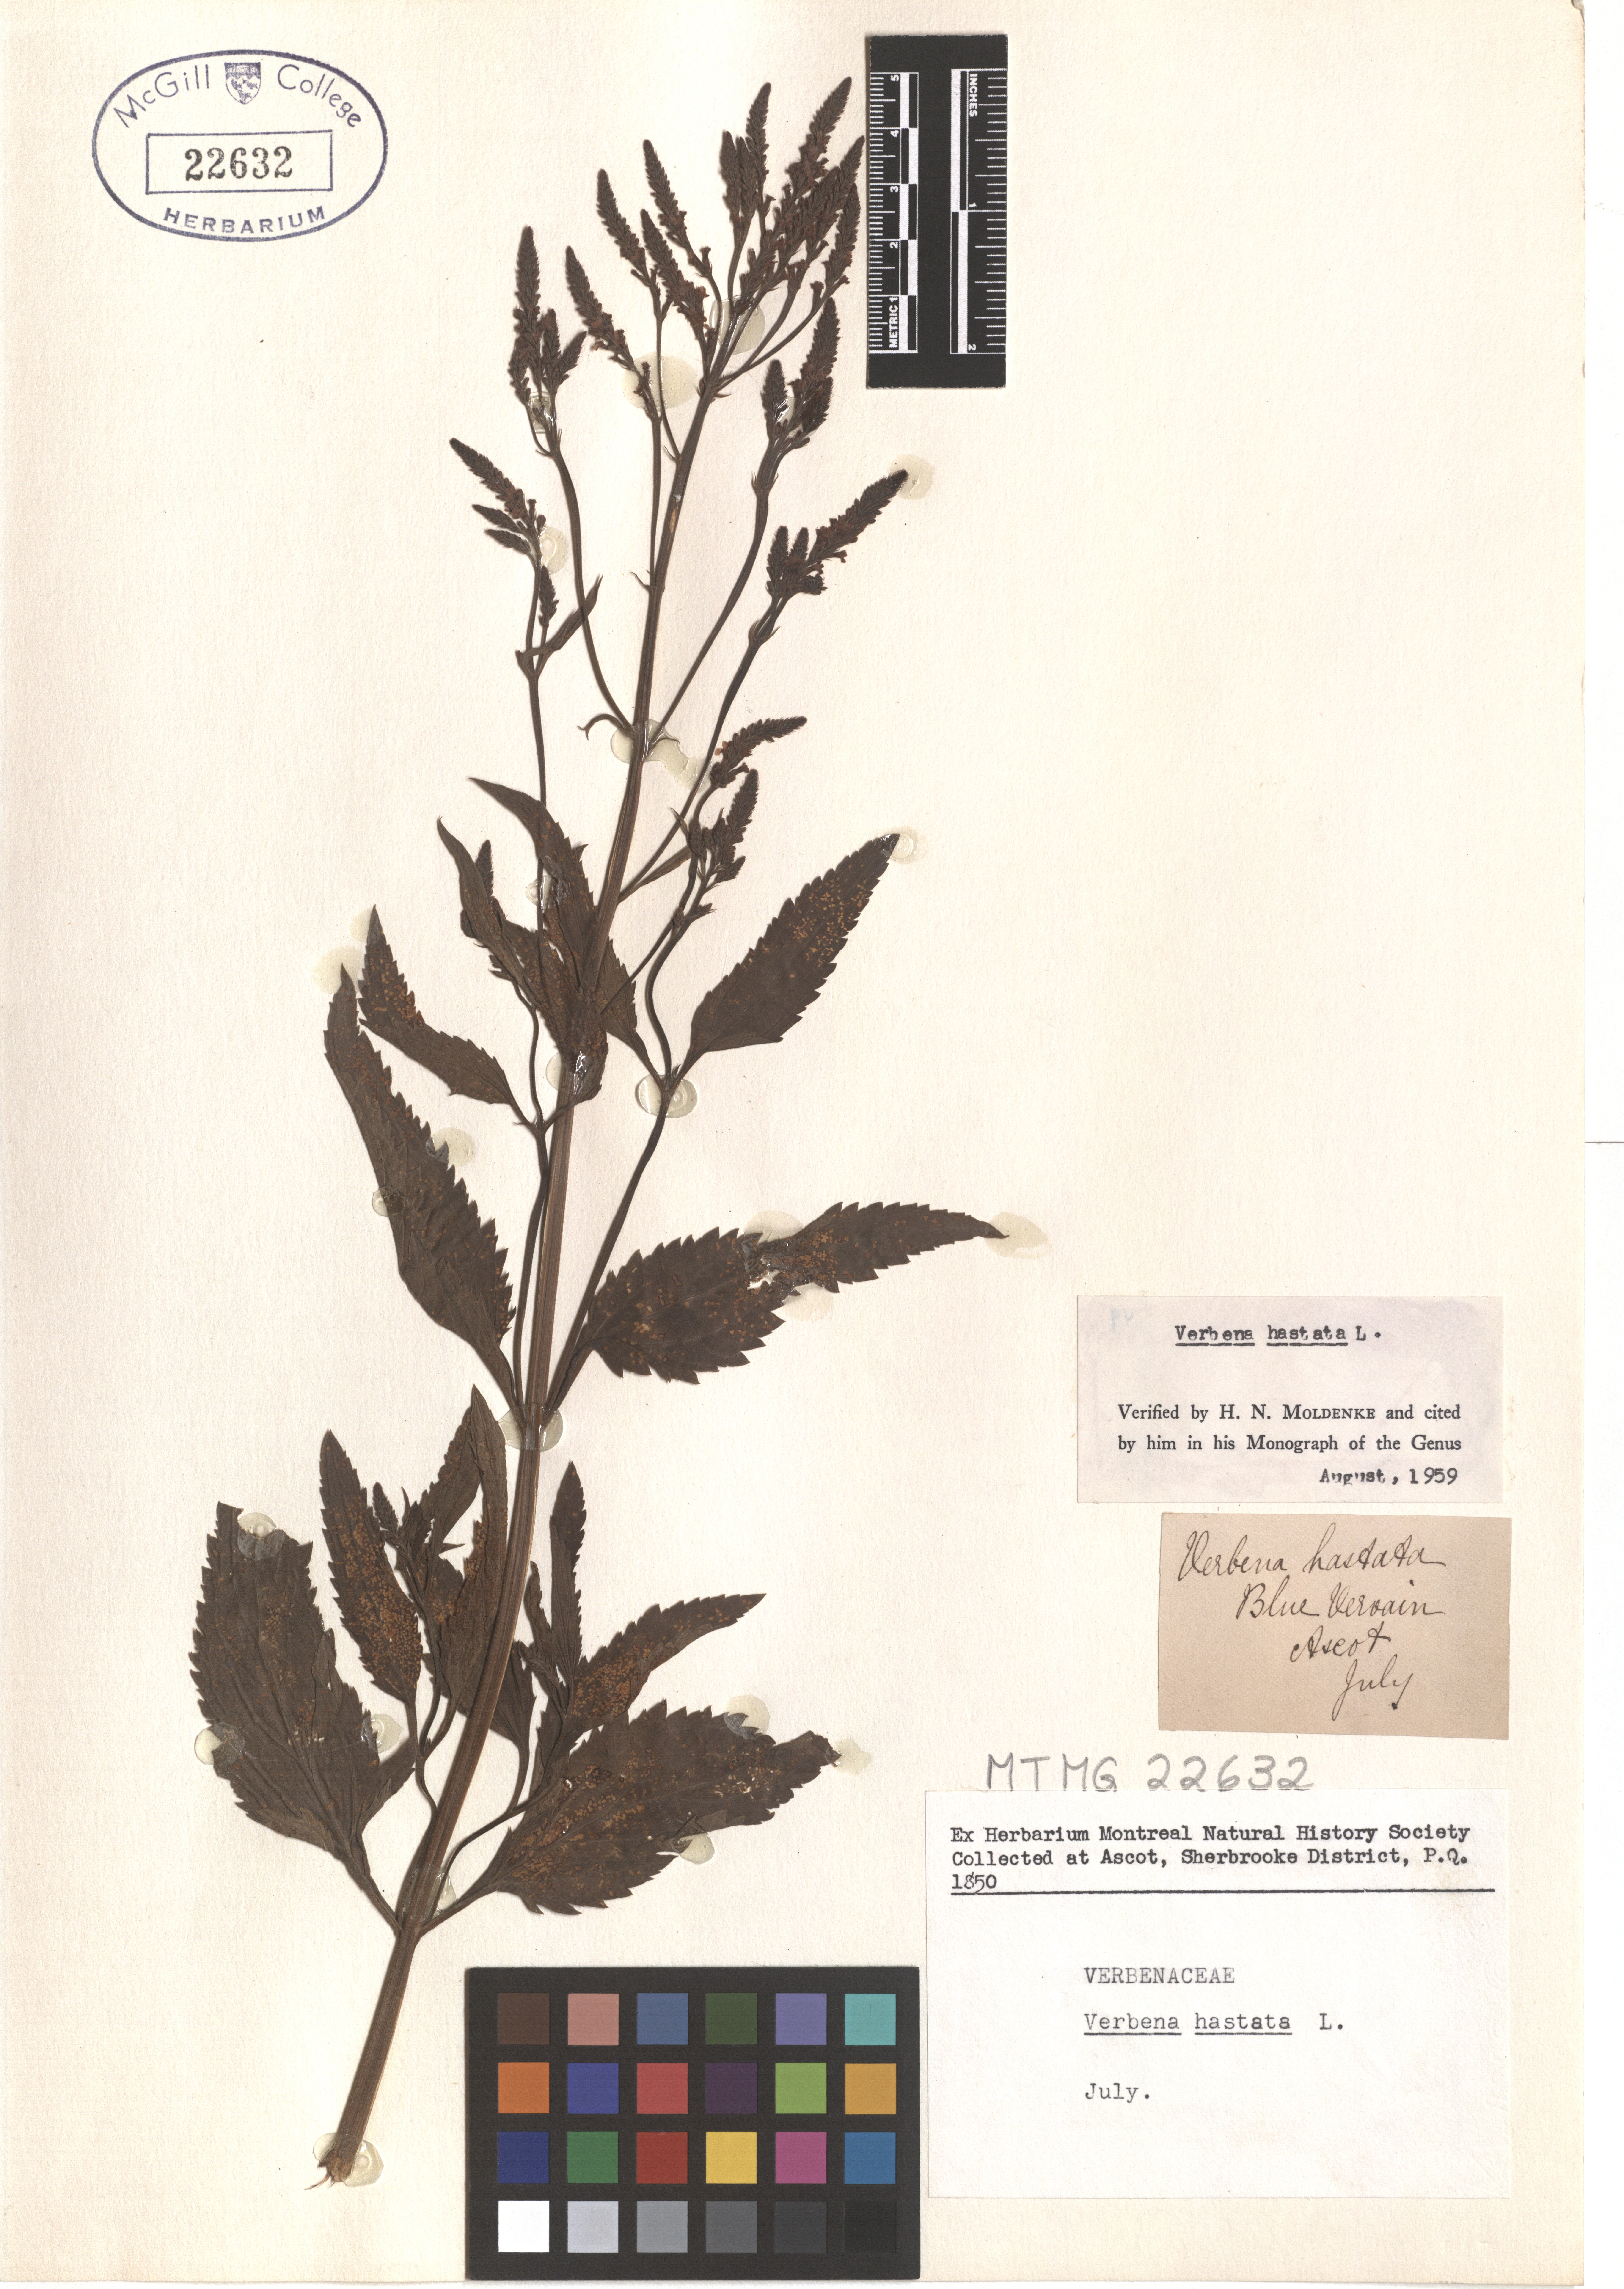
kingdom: Plantae
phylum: Tracheophyta
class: Magnoliopsida
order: Lamiales
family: Verbenaceae
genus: Verbena
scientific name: Verbena hastata
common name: American blue vervain
